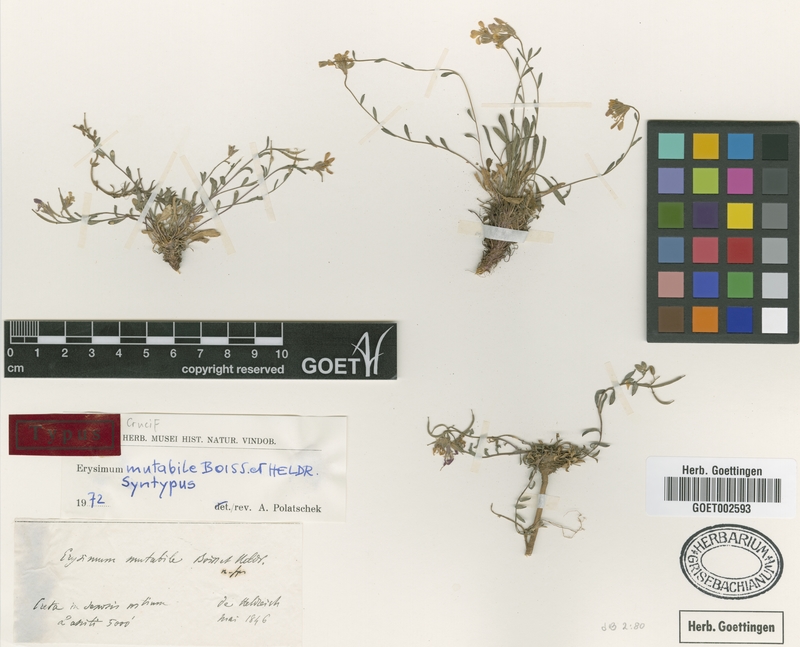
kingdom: Plantae
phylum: Tracheophyta
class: Magnoliopsida
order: Brassicales
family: Brassicaceae
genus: Erysimum
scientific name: Erysimum mutabile
